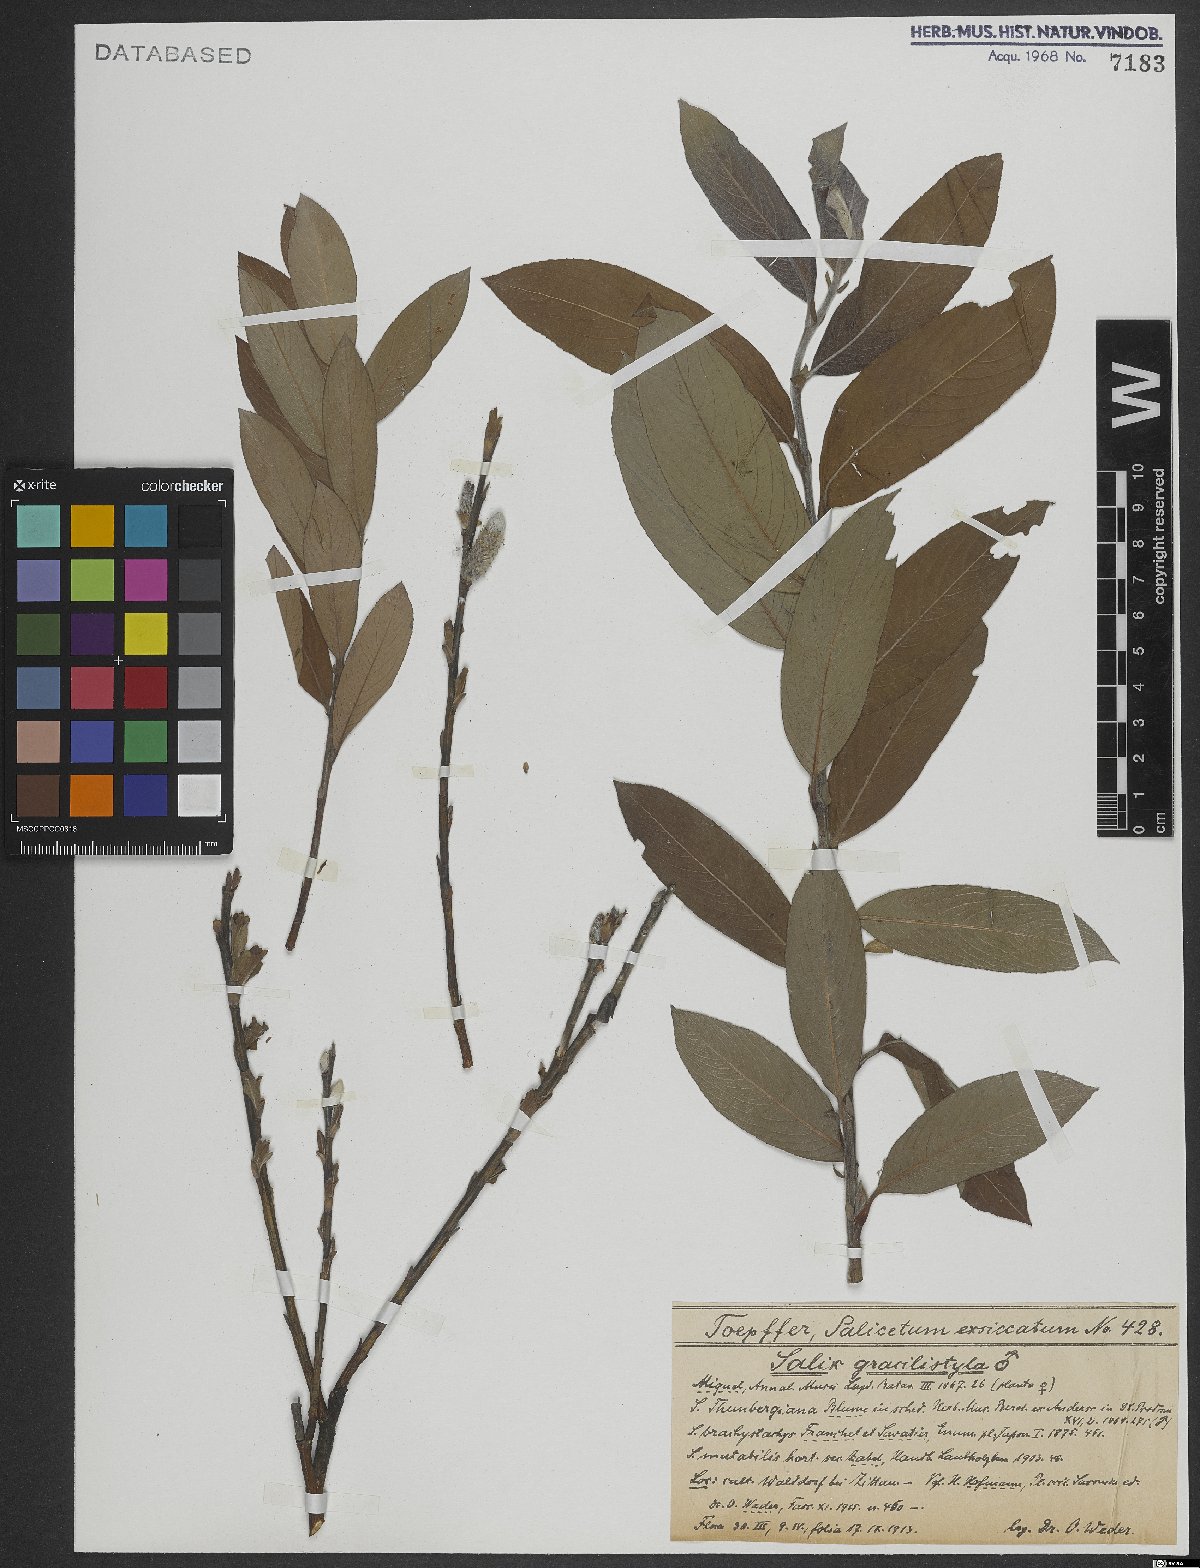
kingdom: Plantae
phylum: Tracheophyta
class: Magnoliopsida
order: Malpighiales
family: Salicaceae
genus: Salix
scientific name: Salix gracilistyla
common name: Rose-gold pussy willow
